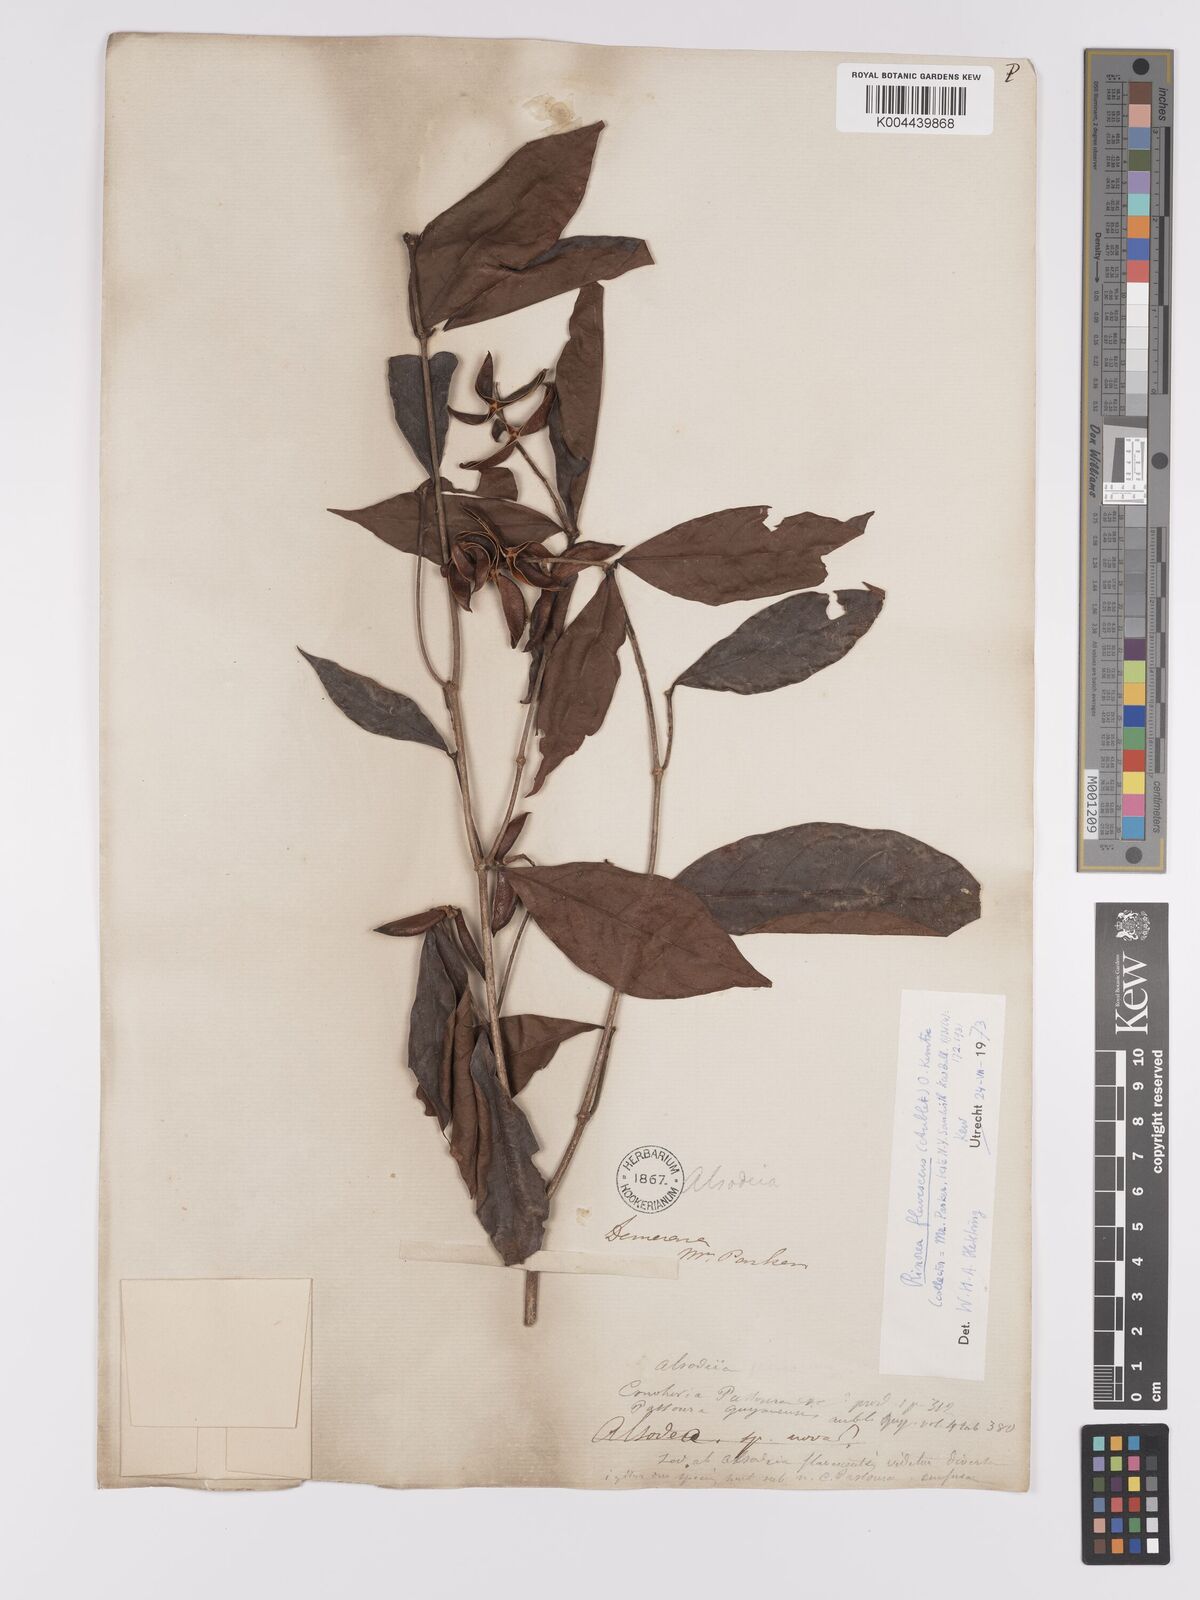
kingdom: Plantae
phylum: Tracheophyta
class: Magnoliopsida
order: Malpighiales
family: Violaceae
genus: Rinorea
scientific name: Rinorea flavescens
